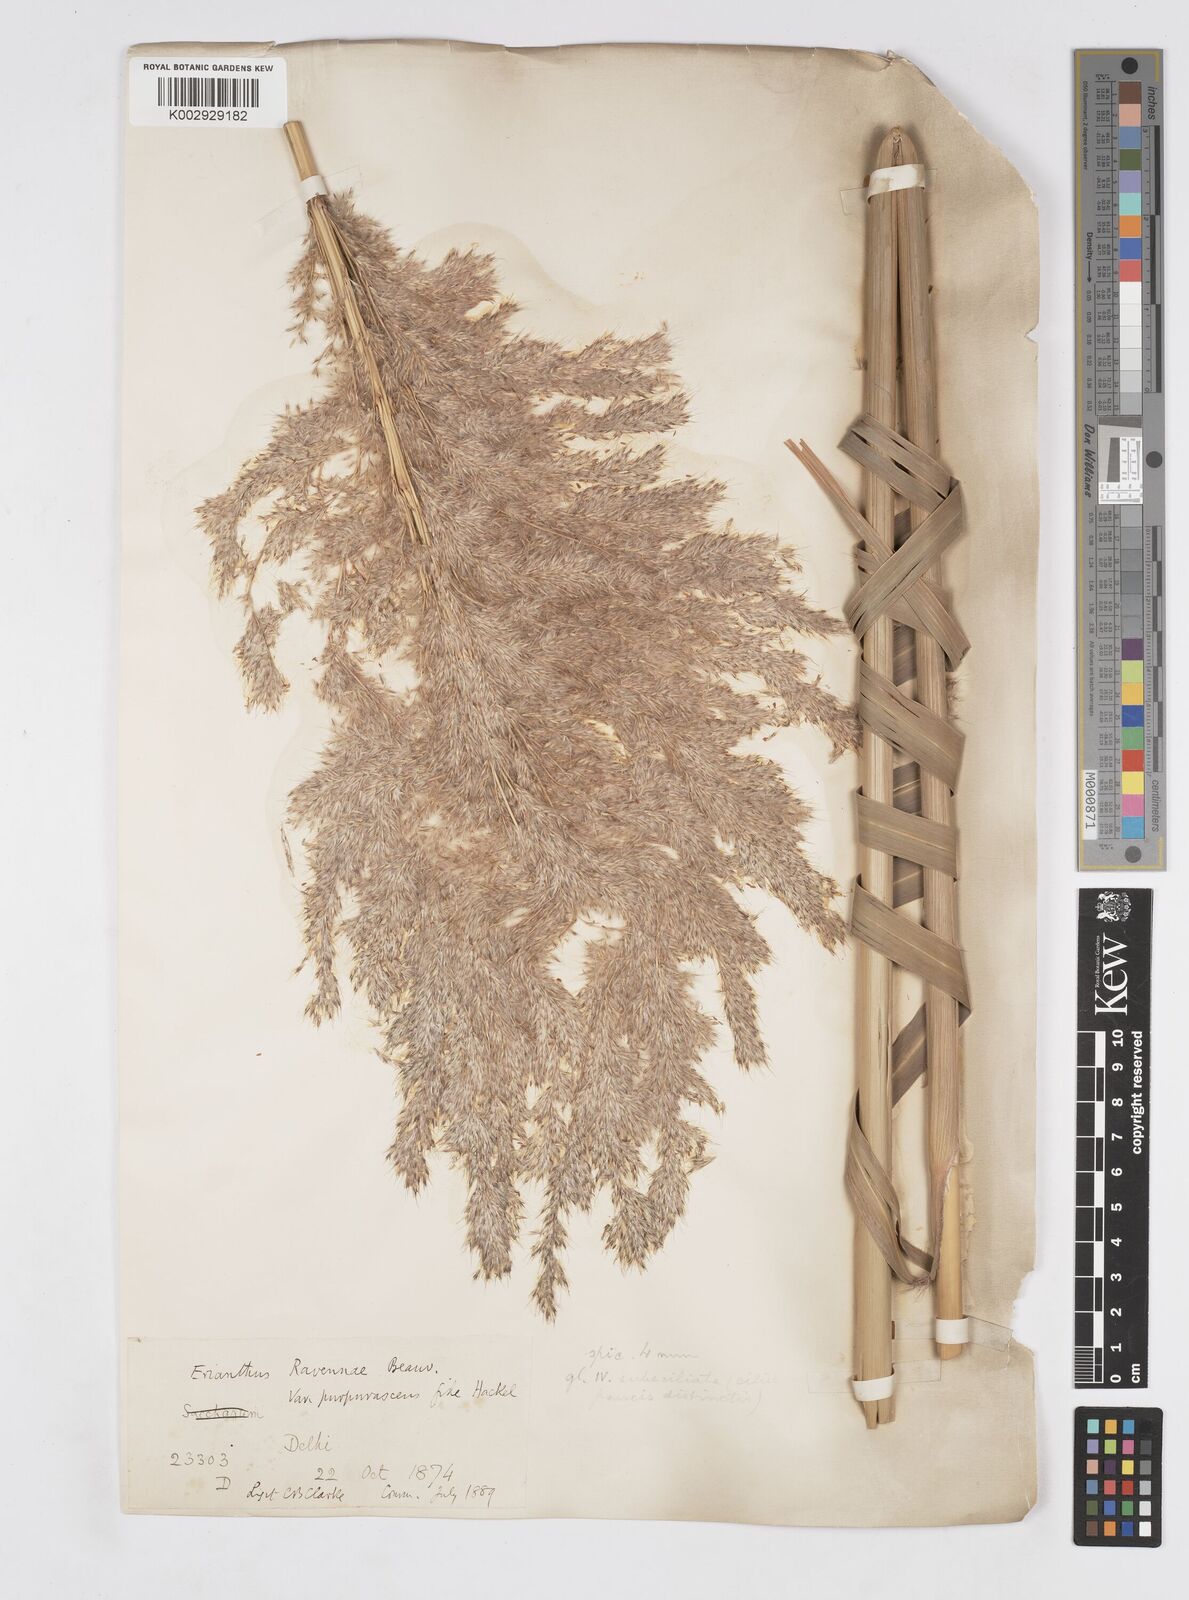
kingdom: Plantae
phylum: Tracheophyta
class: Liliopsida
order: Poales
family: Poaceae
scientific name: Poaceae
